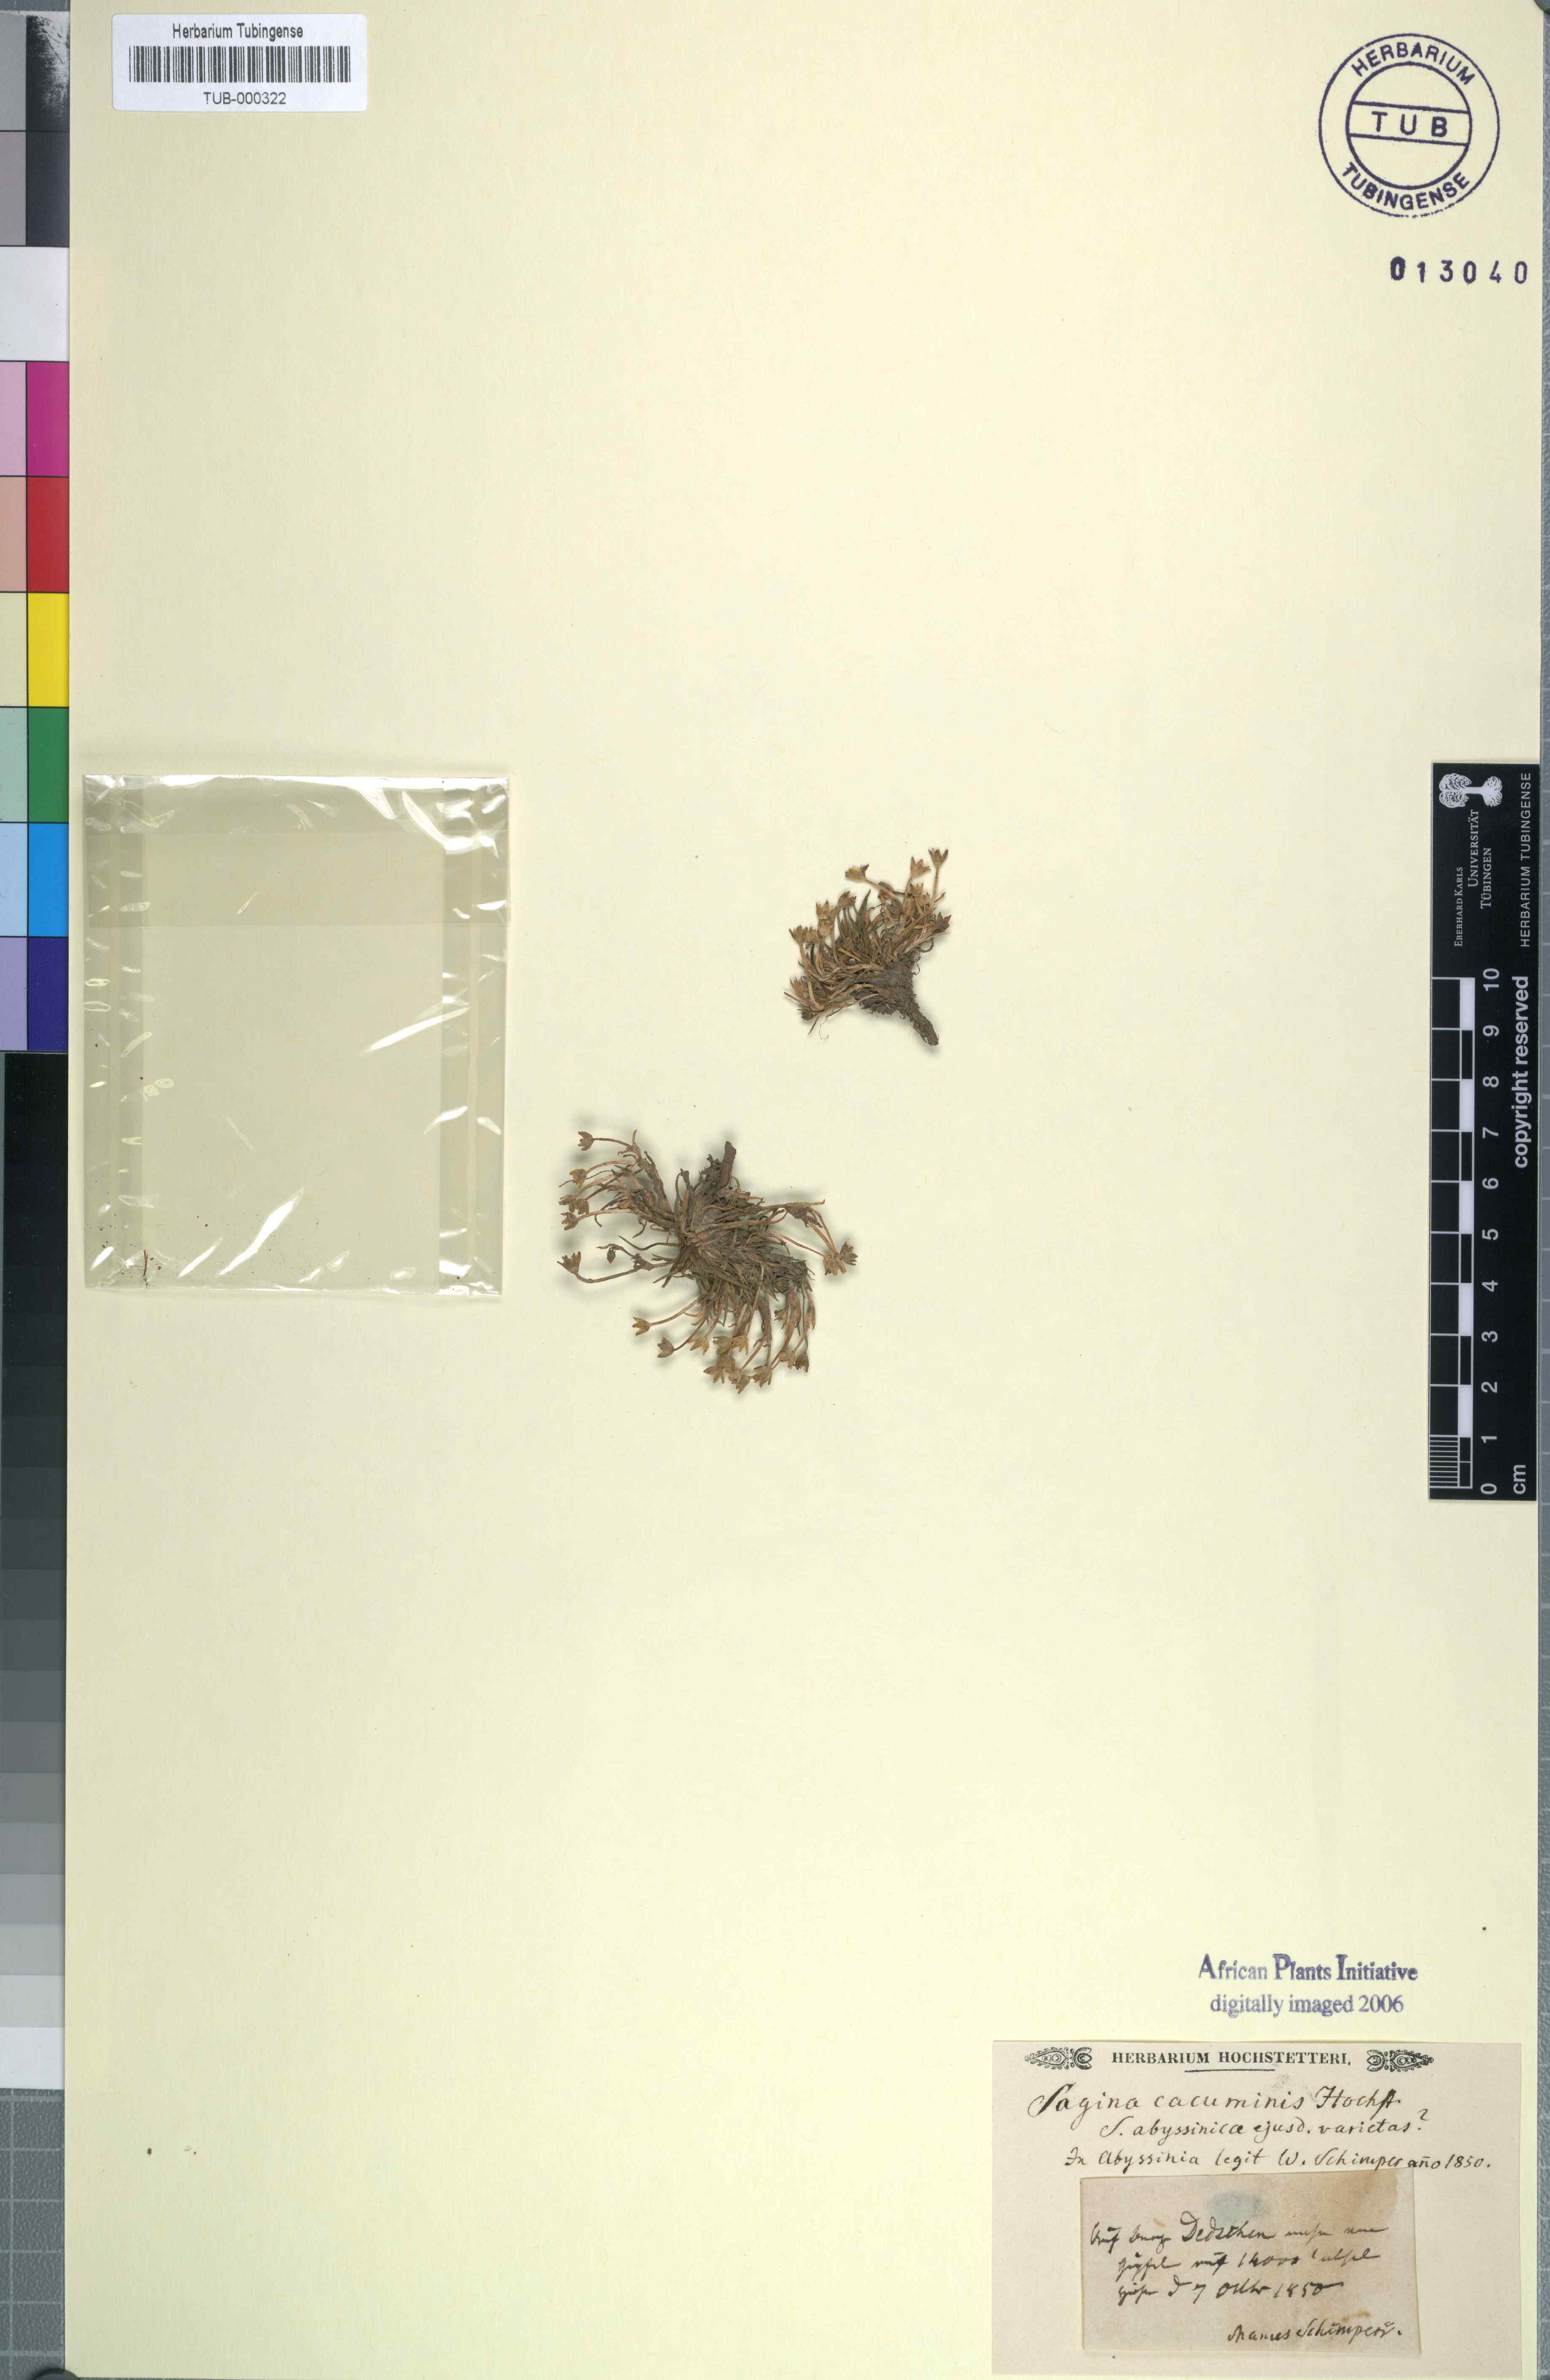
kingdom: Plantae
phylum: Tracheophyta
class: Magnoliopsida
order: Caryophyllales
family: Caryophyllaceae
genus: Sagina
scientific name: Sagina
